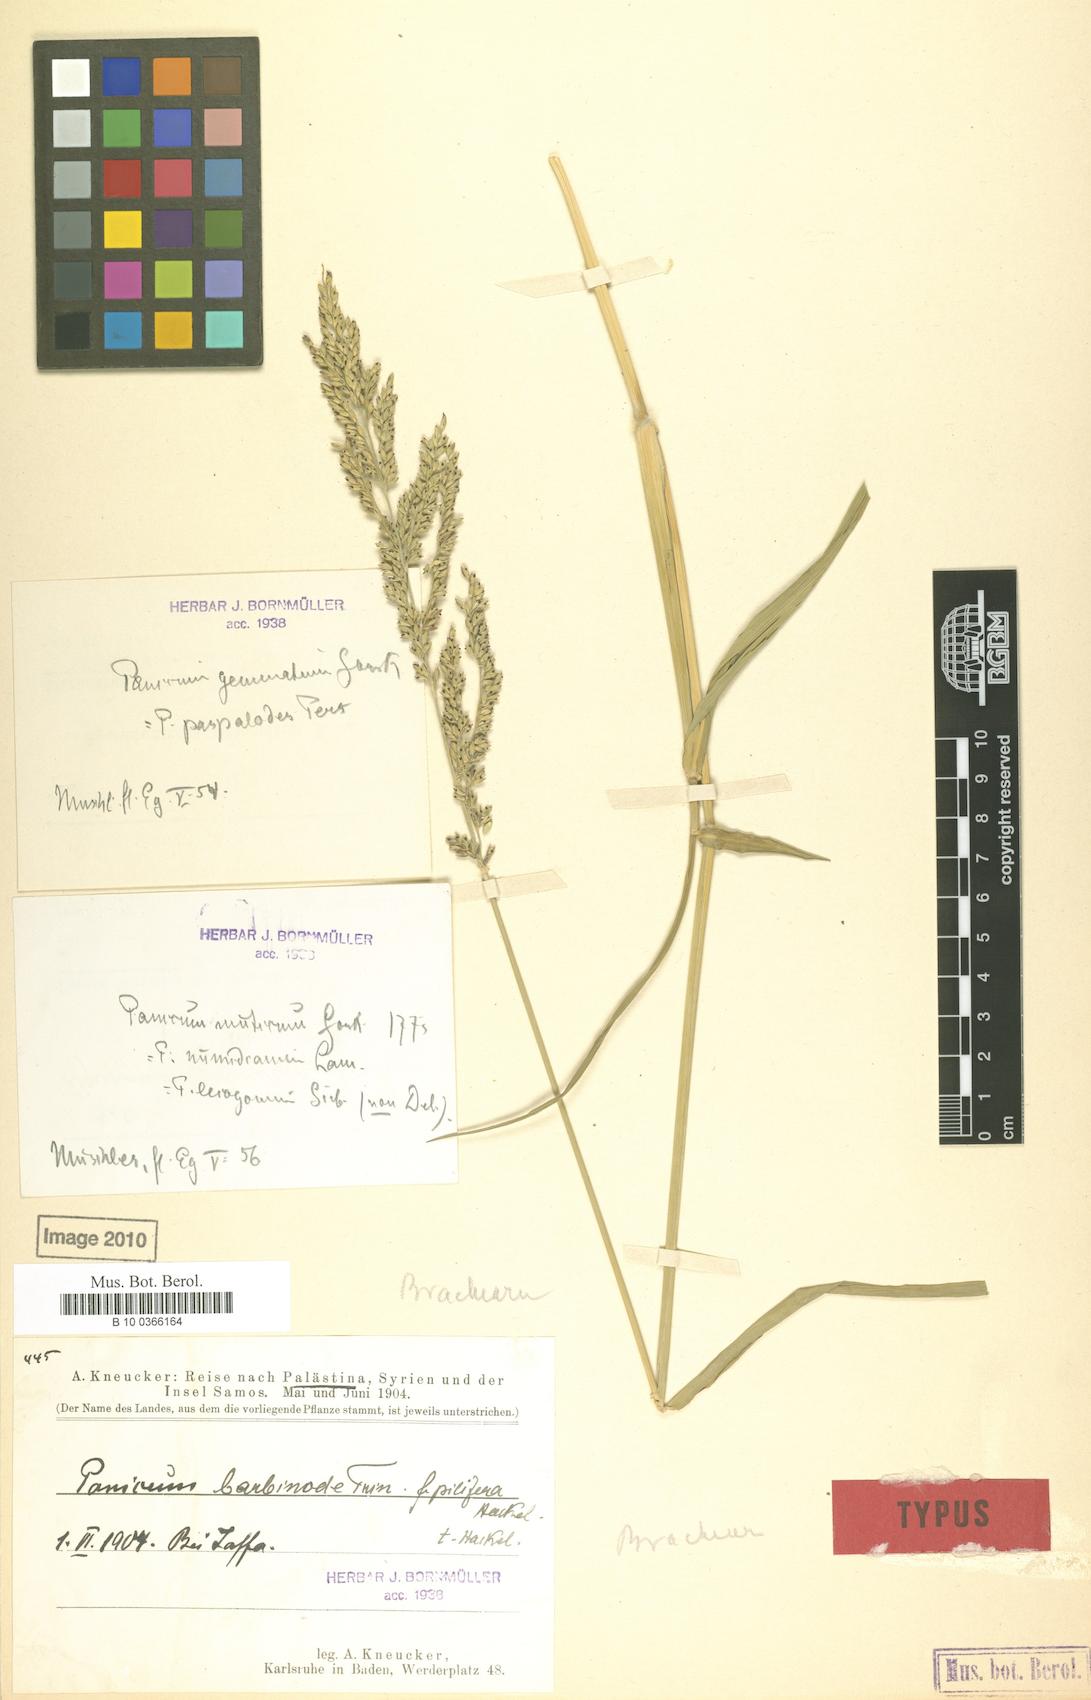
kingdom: Plantae
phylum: Tracheophyta
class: Liliopsida
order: Poales
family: Poaceae
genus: Urochloa
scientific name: Urochloa mutica
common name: Para grass
